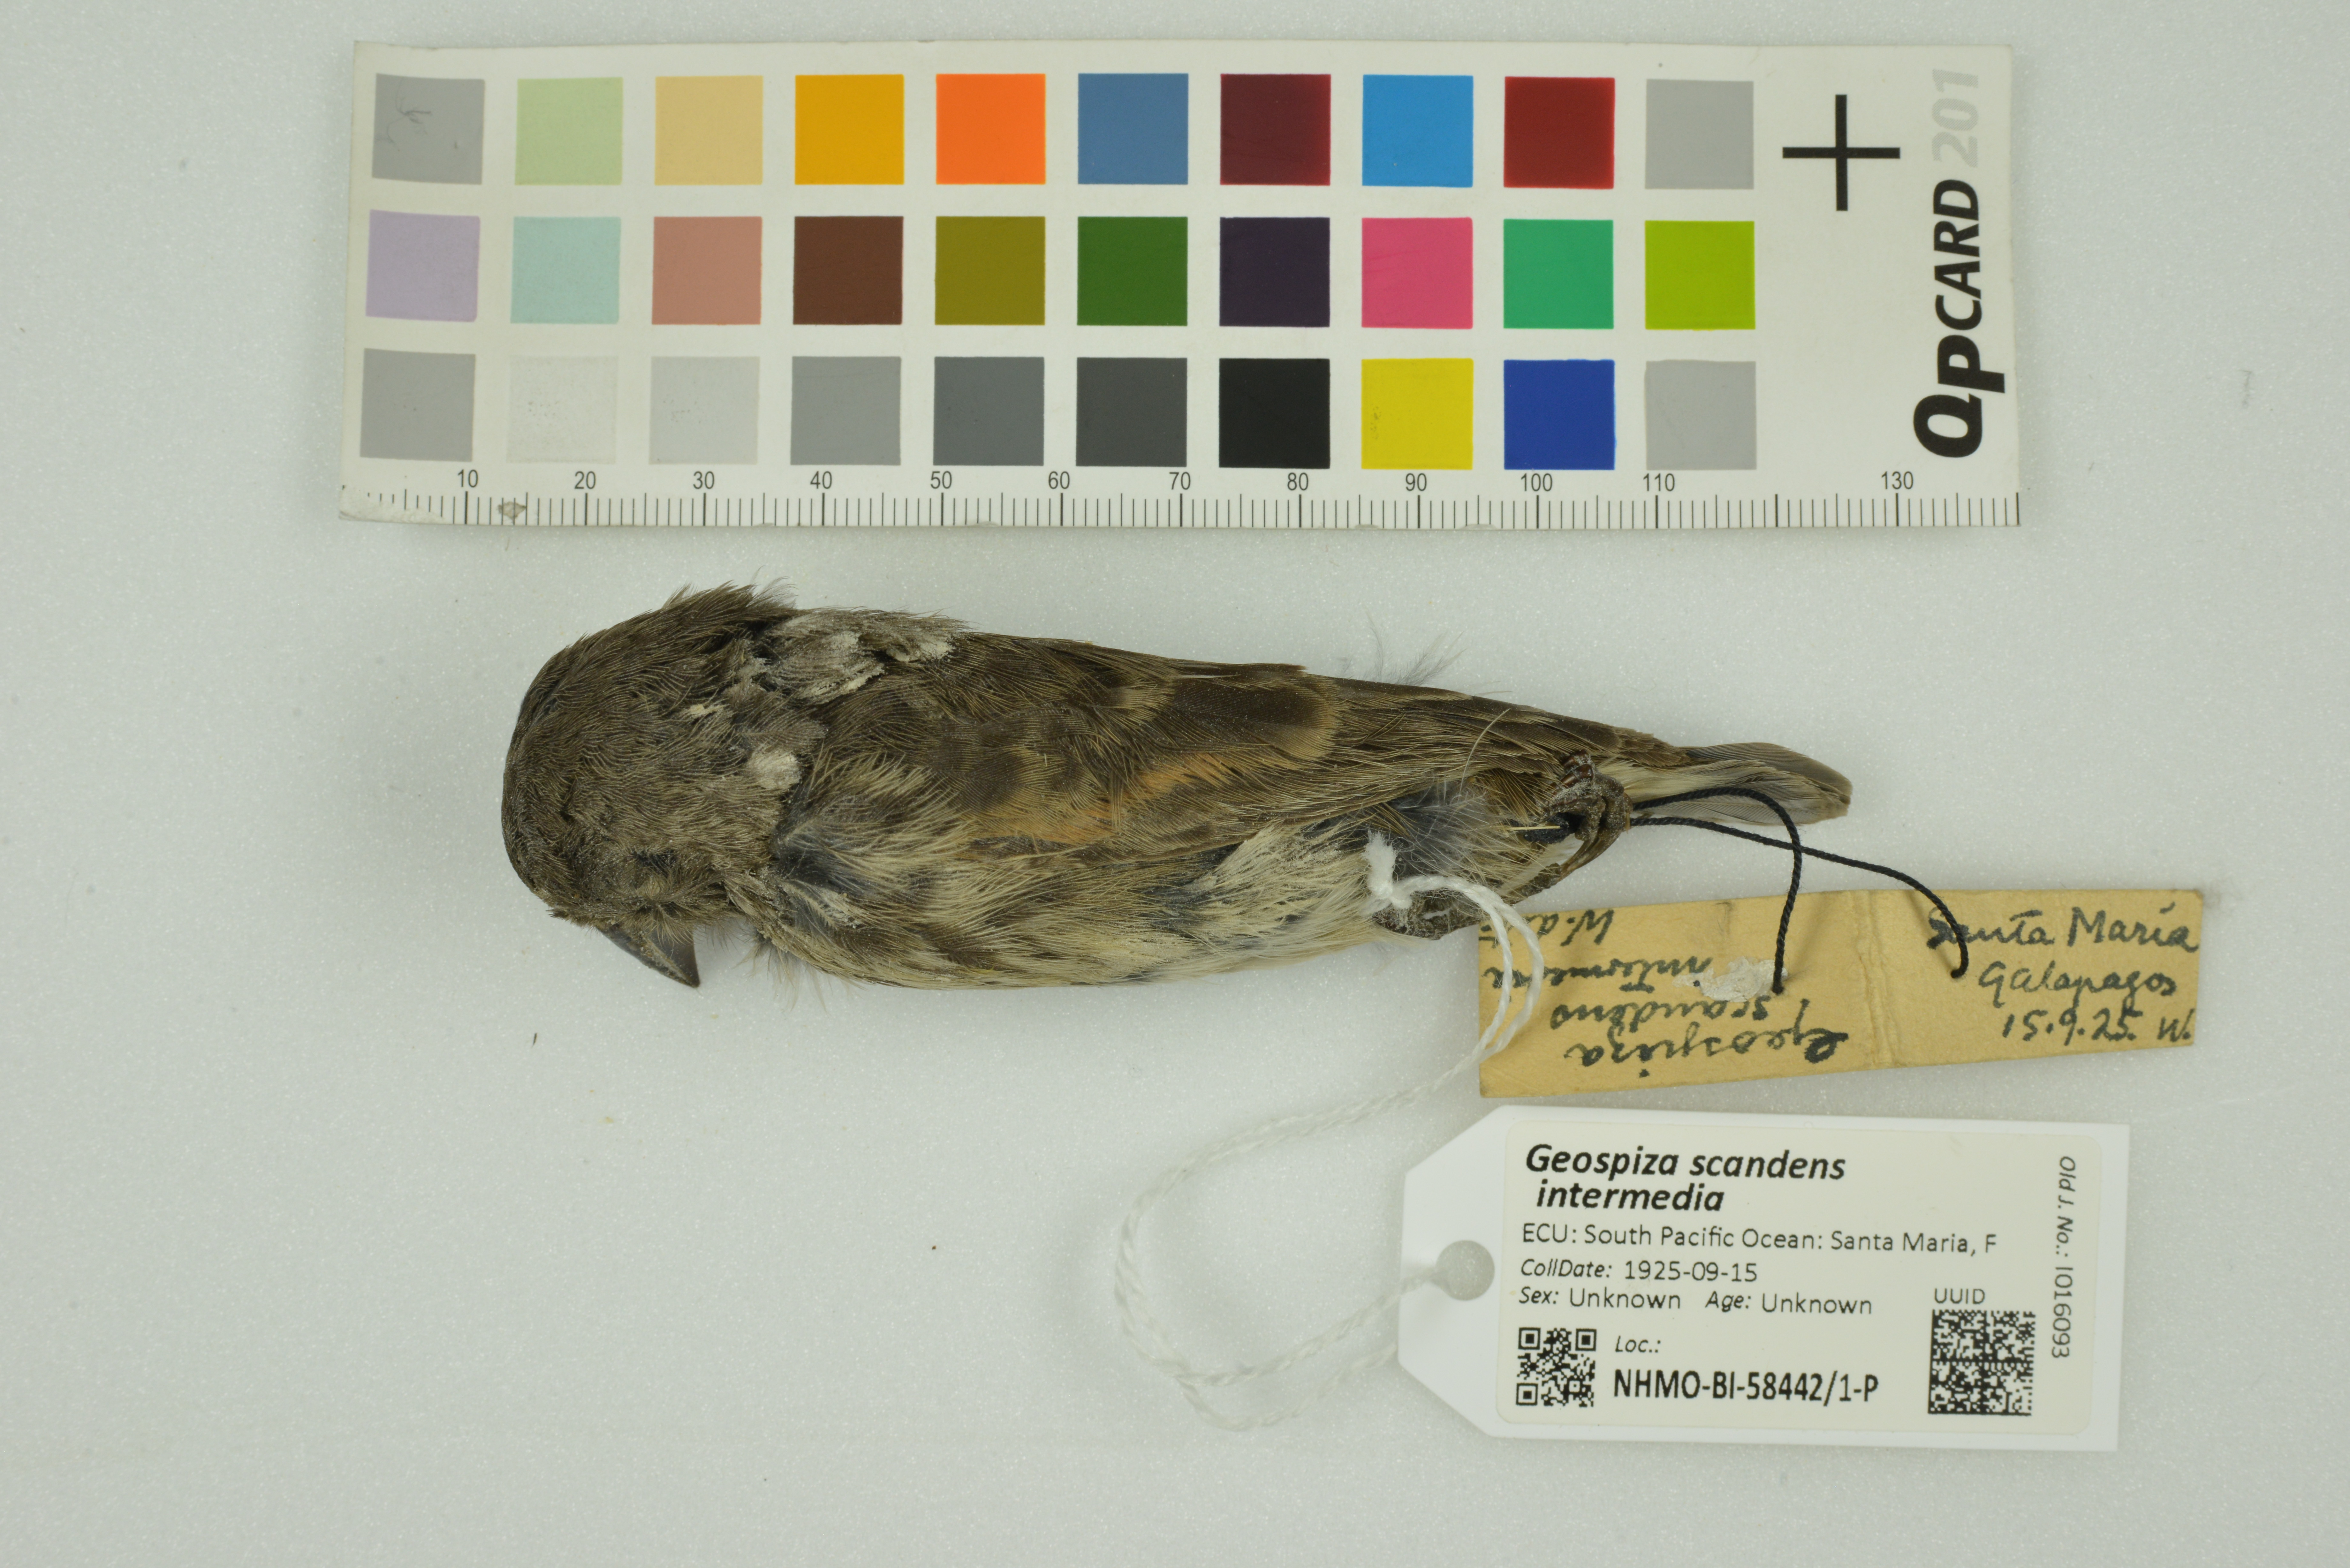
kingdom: Animalia
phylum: Chordata
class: Aves
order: Passeriformes
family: Thraupidae
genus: Geospiza
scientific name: Geospiza scandens
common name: Common cactus-finch
